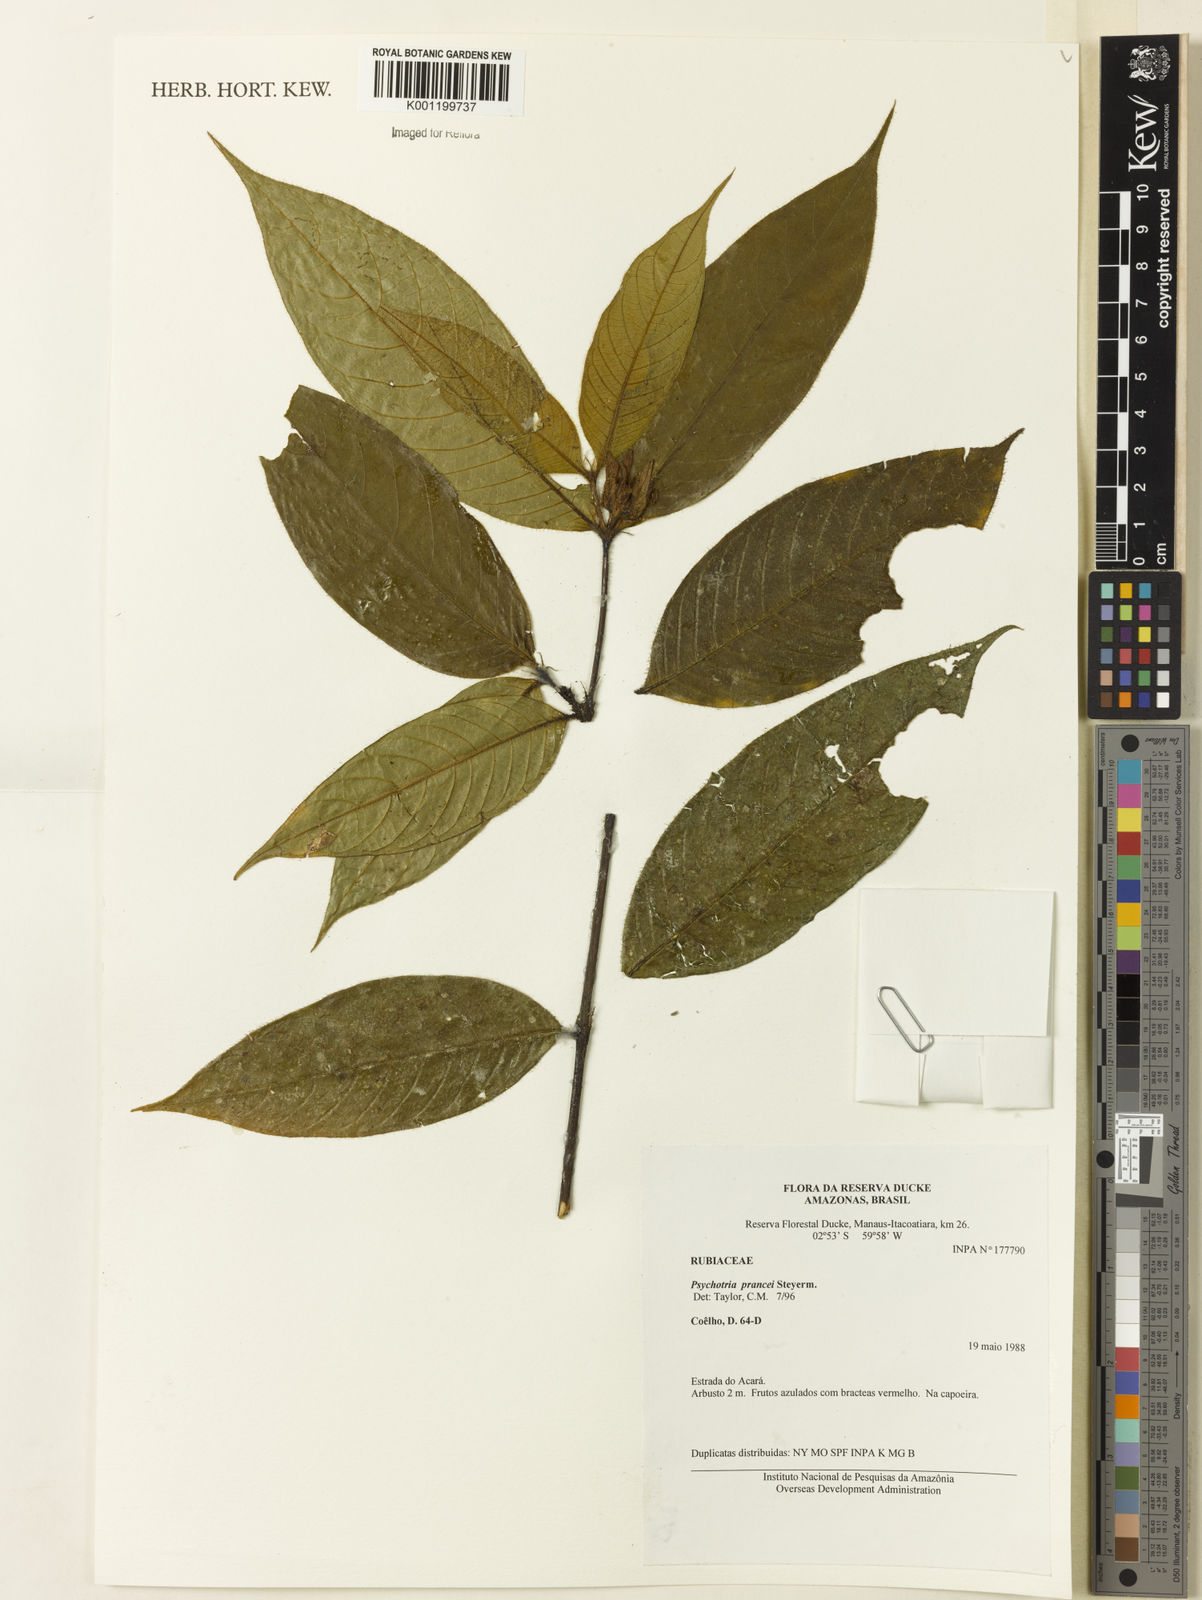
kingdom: Plantae
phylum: Tracheophyta
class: Magnoliopsida
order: Gentianales
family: Rubiaceae
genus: Palicourea
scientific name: Palicourea prancei
